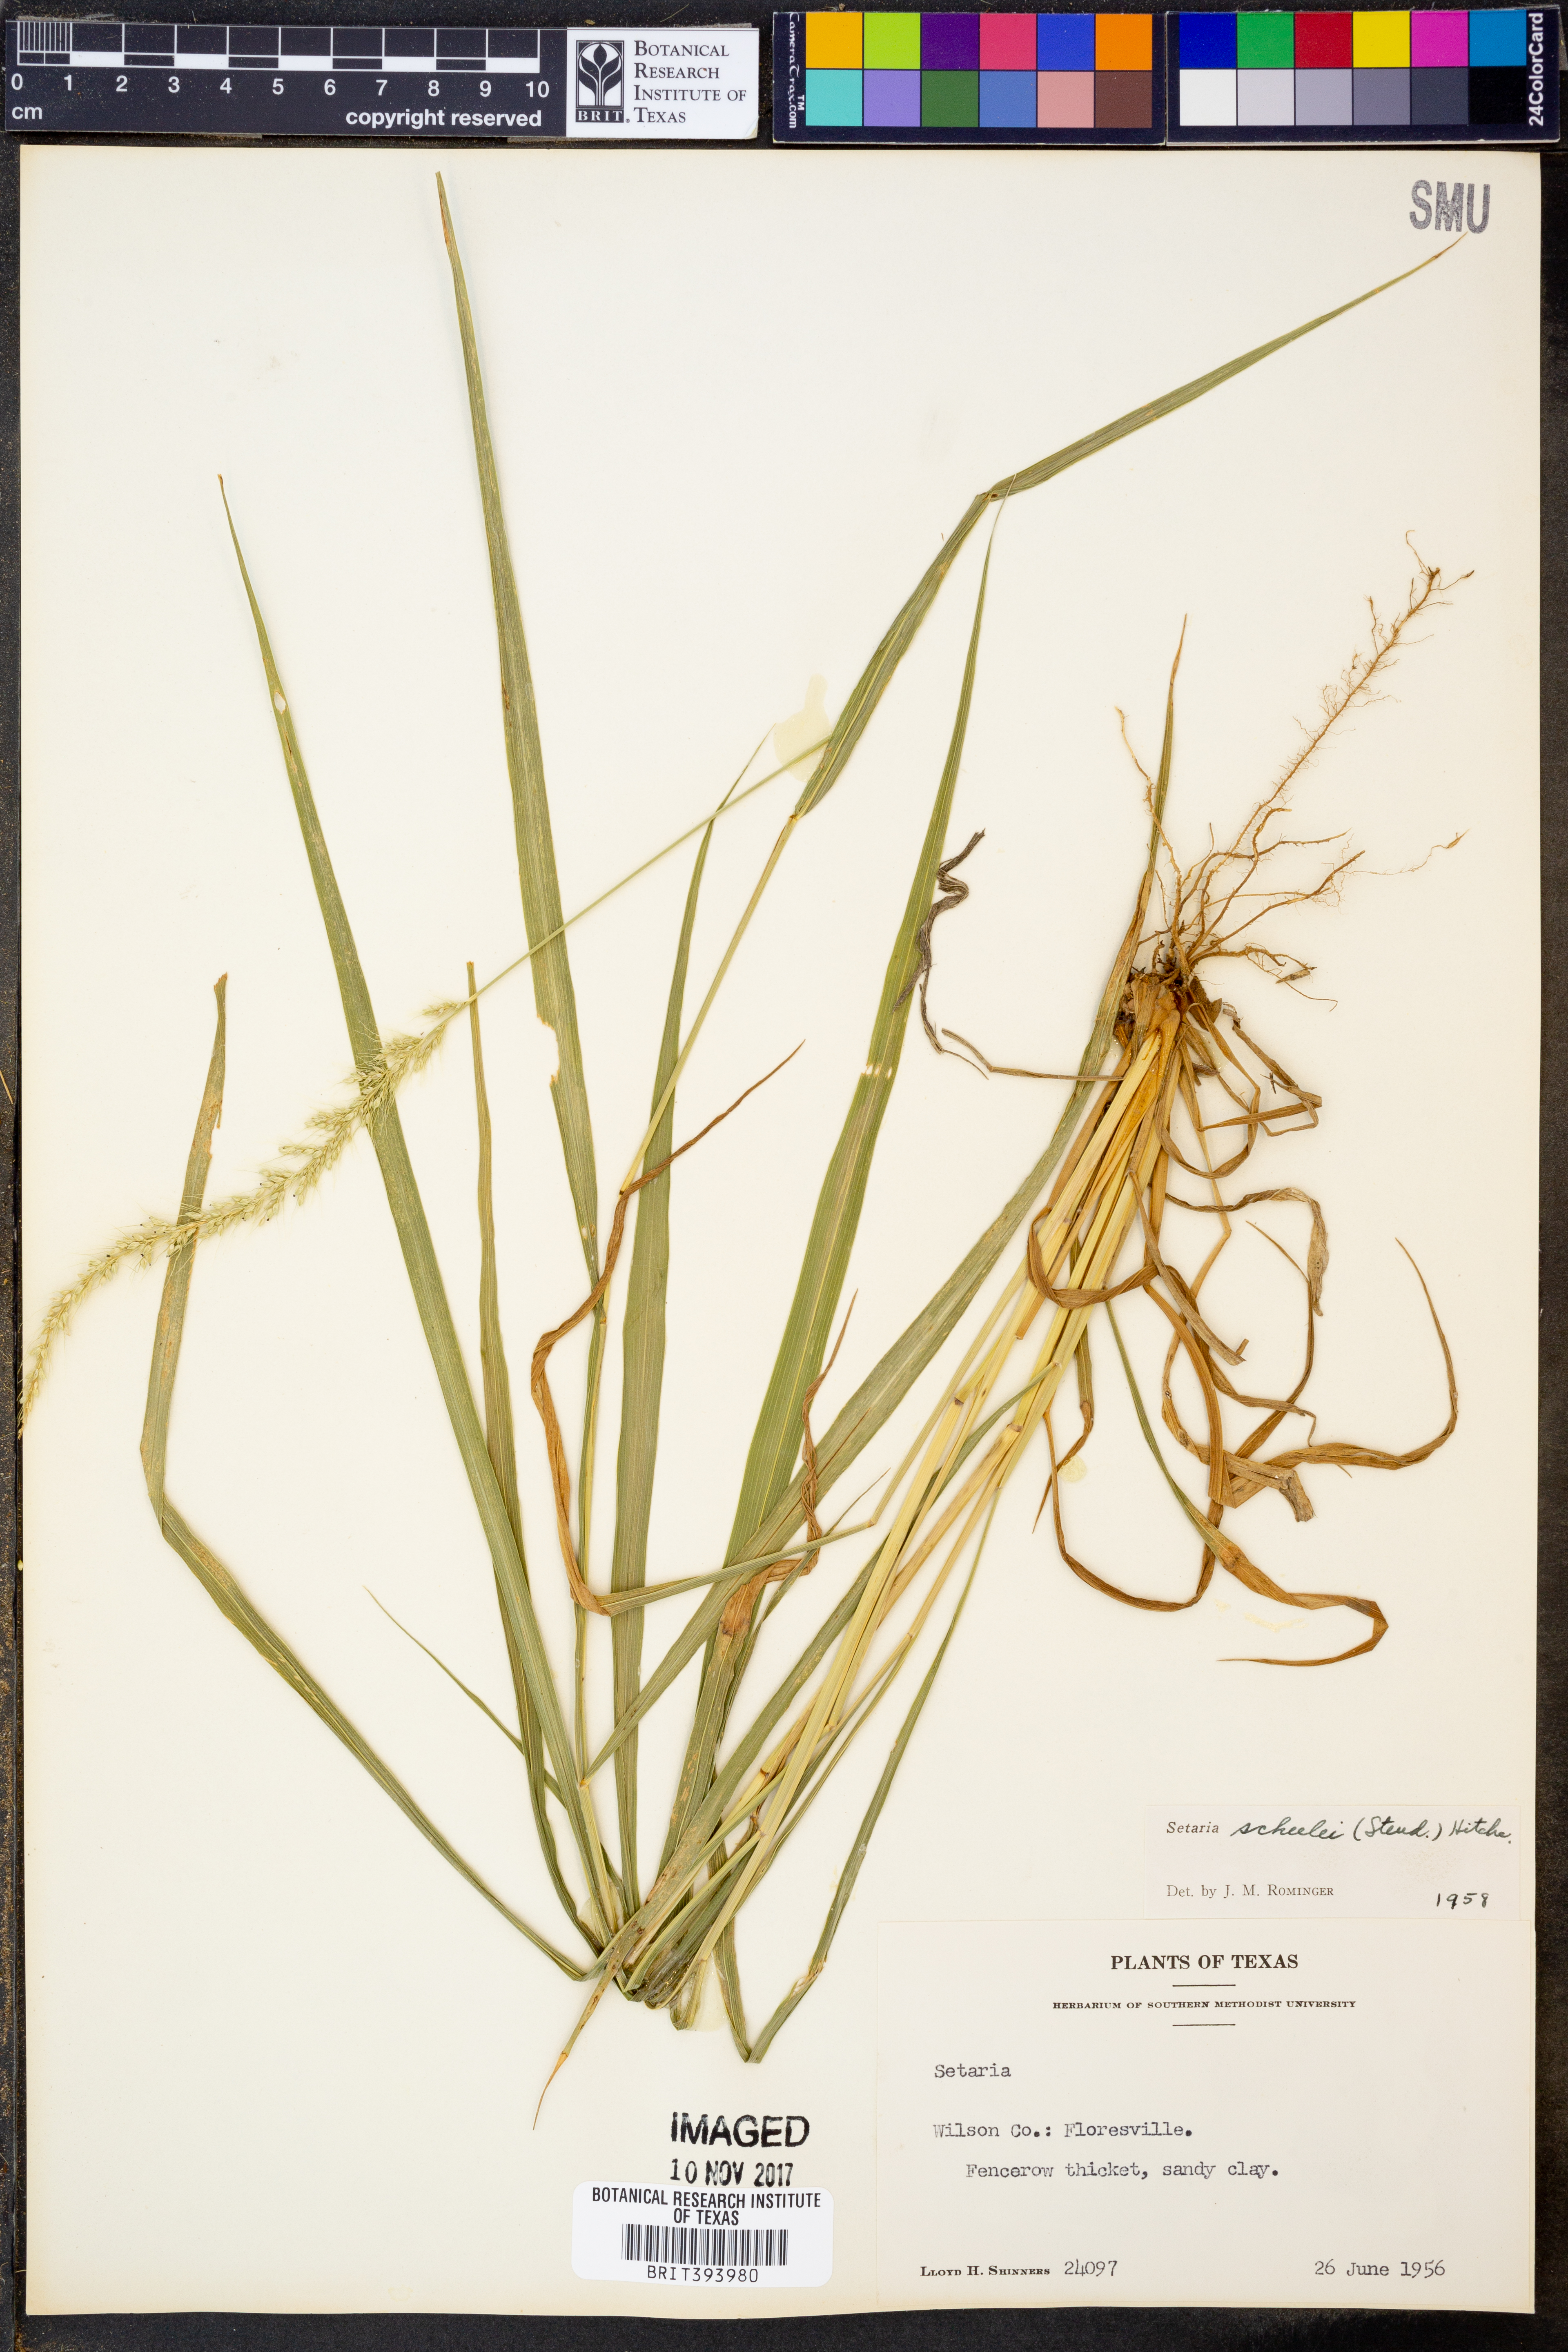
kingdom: Plantae
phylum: Tracheophyta
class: Liliopsida
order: Poales
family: Poaceae
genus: Setaria
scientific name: Setaria scheelei
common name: Southwestern bristle grass
